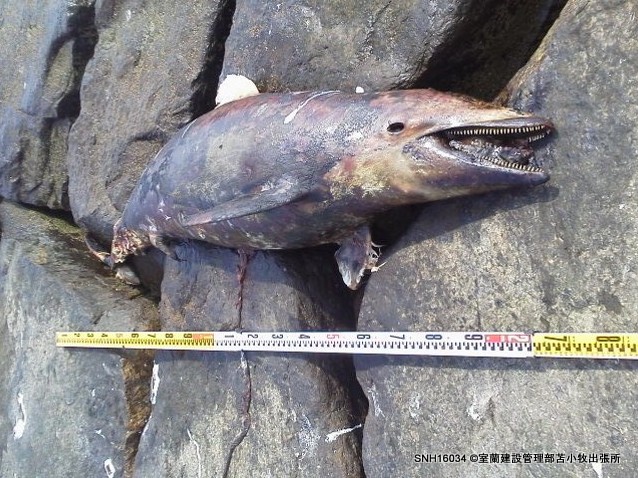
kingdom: Animalia
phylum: Chordata
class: Mammalia
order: Cetacea
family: Delphinidae
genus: Lagenorhynchus
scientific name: Lagenorhynchus obliquidens
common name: Pacific white-sided dolphin
